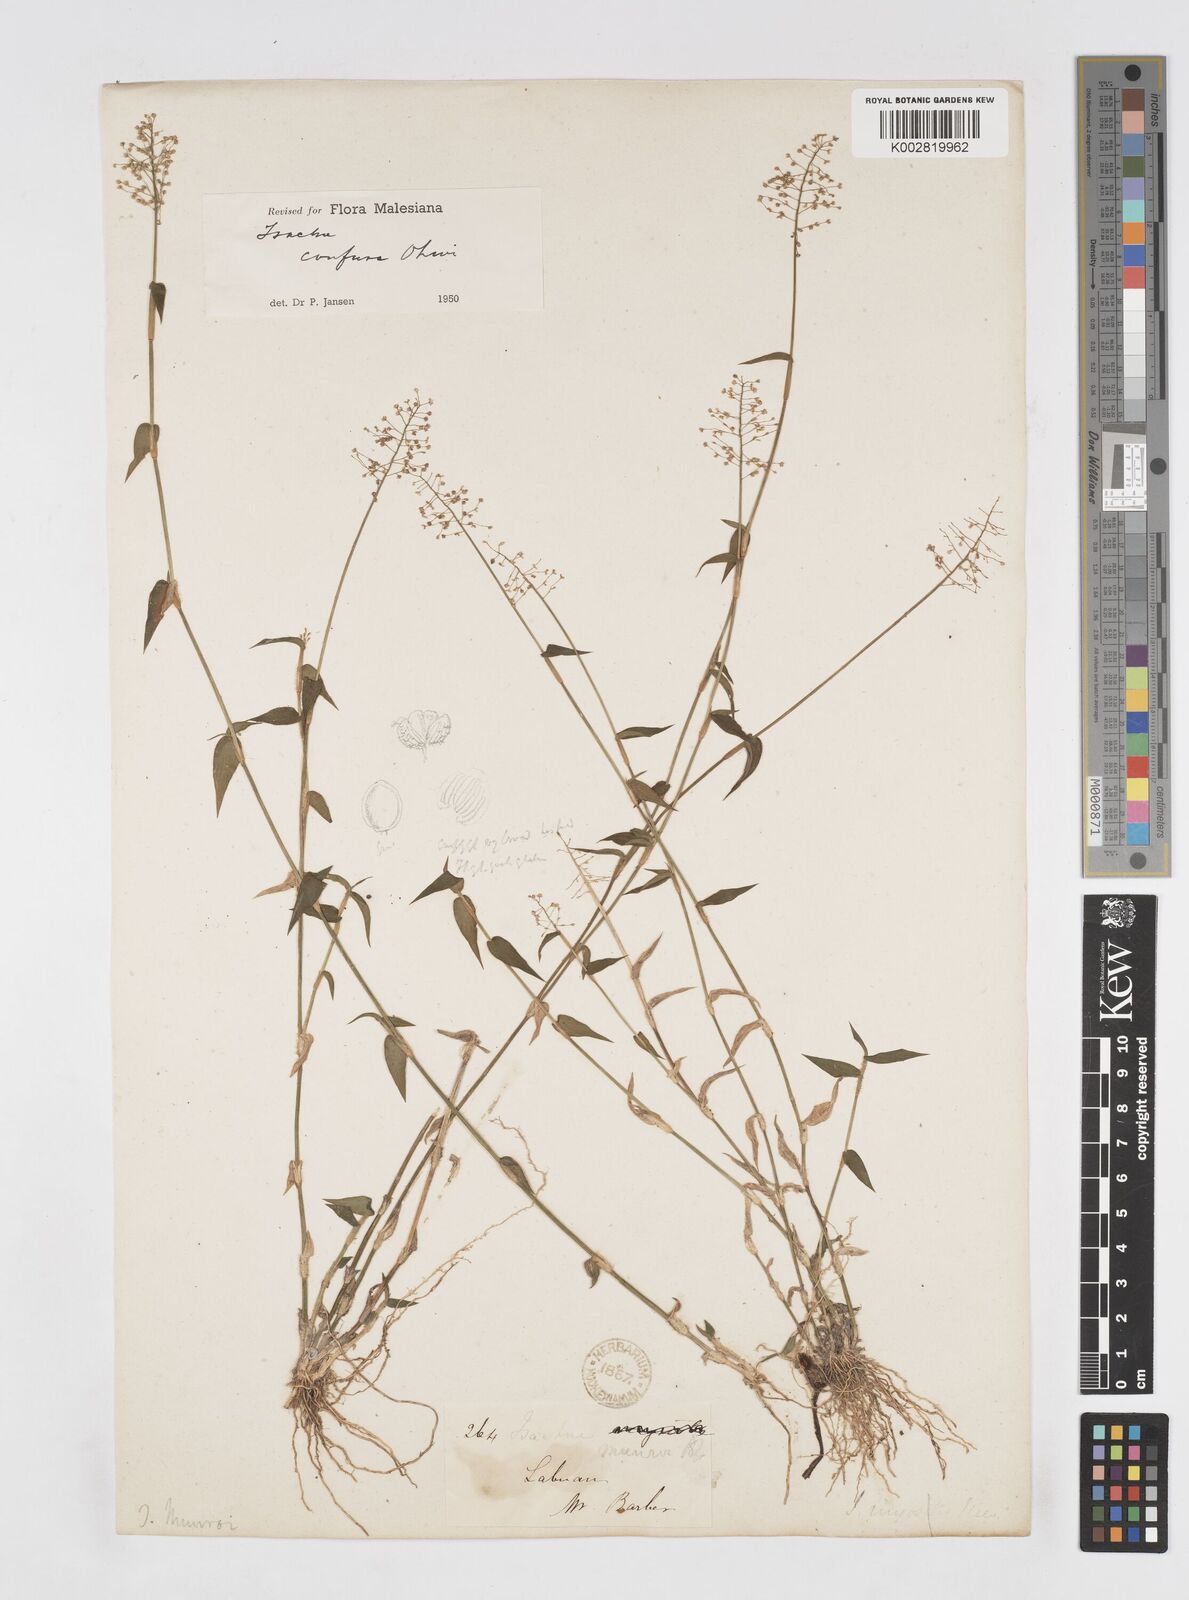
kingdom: Plantae
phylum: Tracheophyta
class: Liliopsida
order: Poales
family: Poaceae
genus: Isachne
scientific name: Isachne confusa
